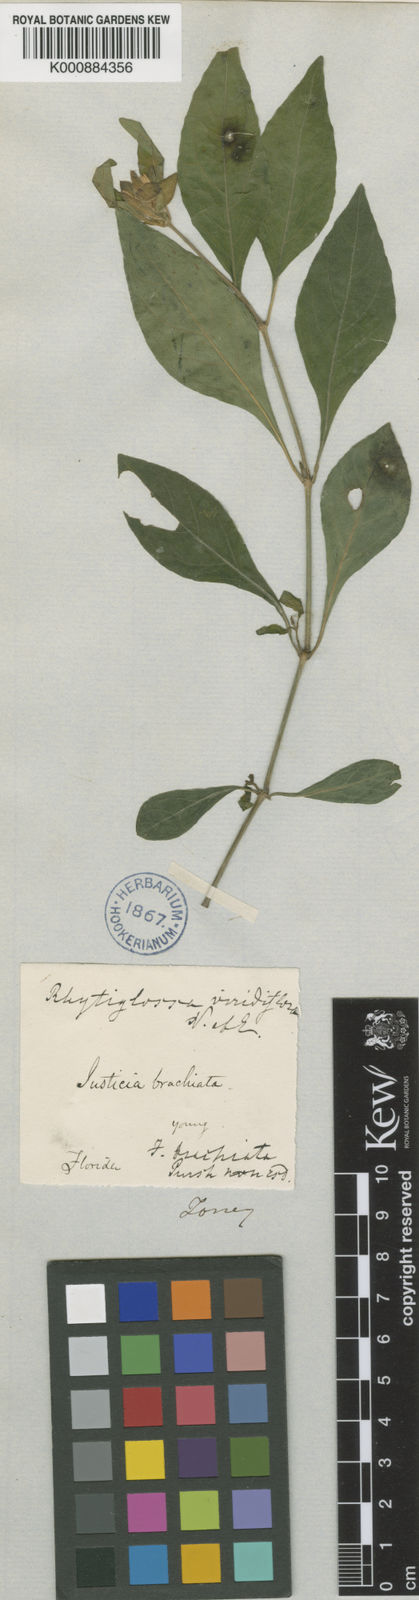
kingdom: Plantae
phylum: Tracheophyta
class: Magnoliopsida
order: Lamiales
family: Acanthaceae
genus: Yeatesia
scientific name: Yeatesia viridiflora
